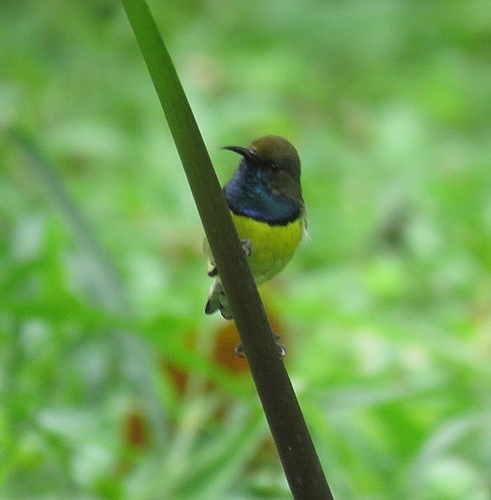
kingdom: Animalia
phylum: Chordata
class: Aves
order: Passeriformes
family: Nectariniidae
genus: Anabathmis
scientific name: Anabathmis newtonii
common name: Newton's sunbird
